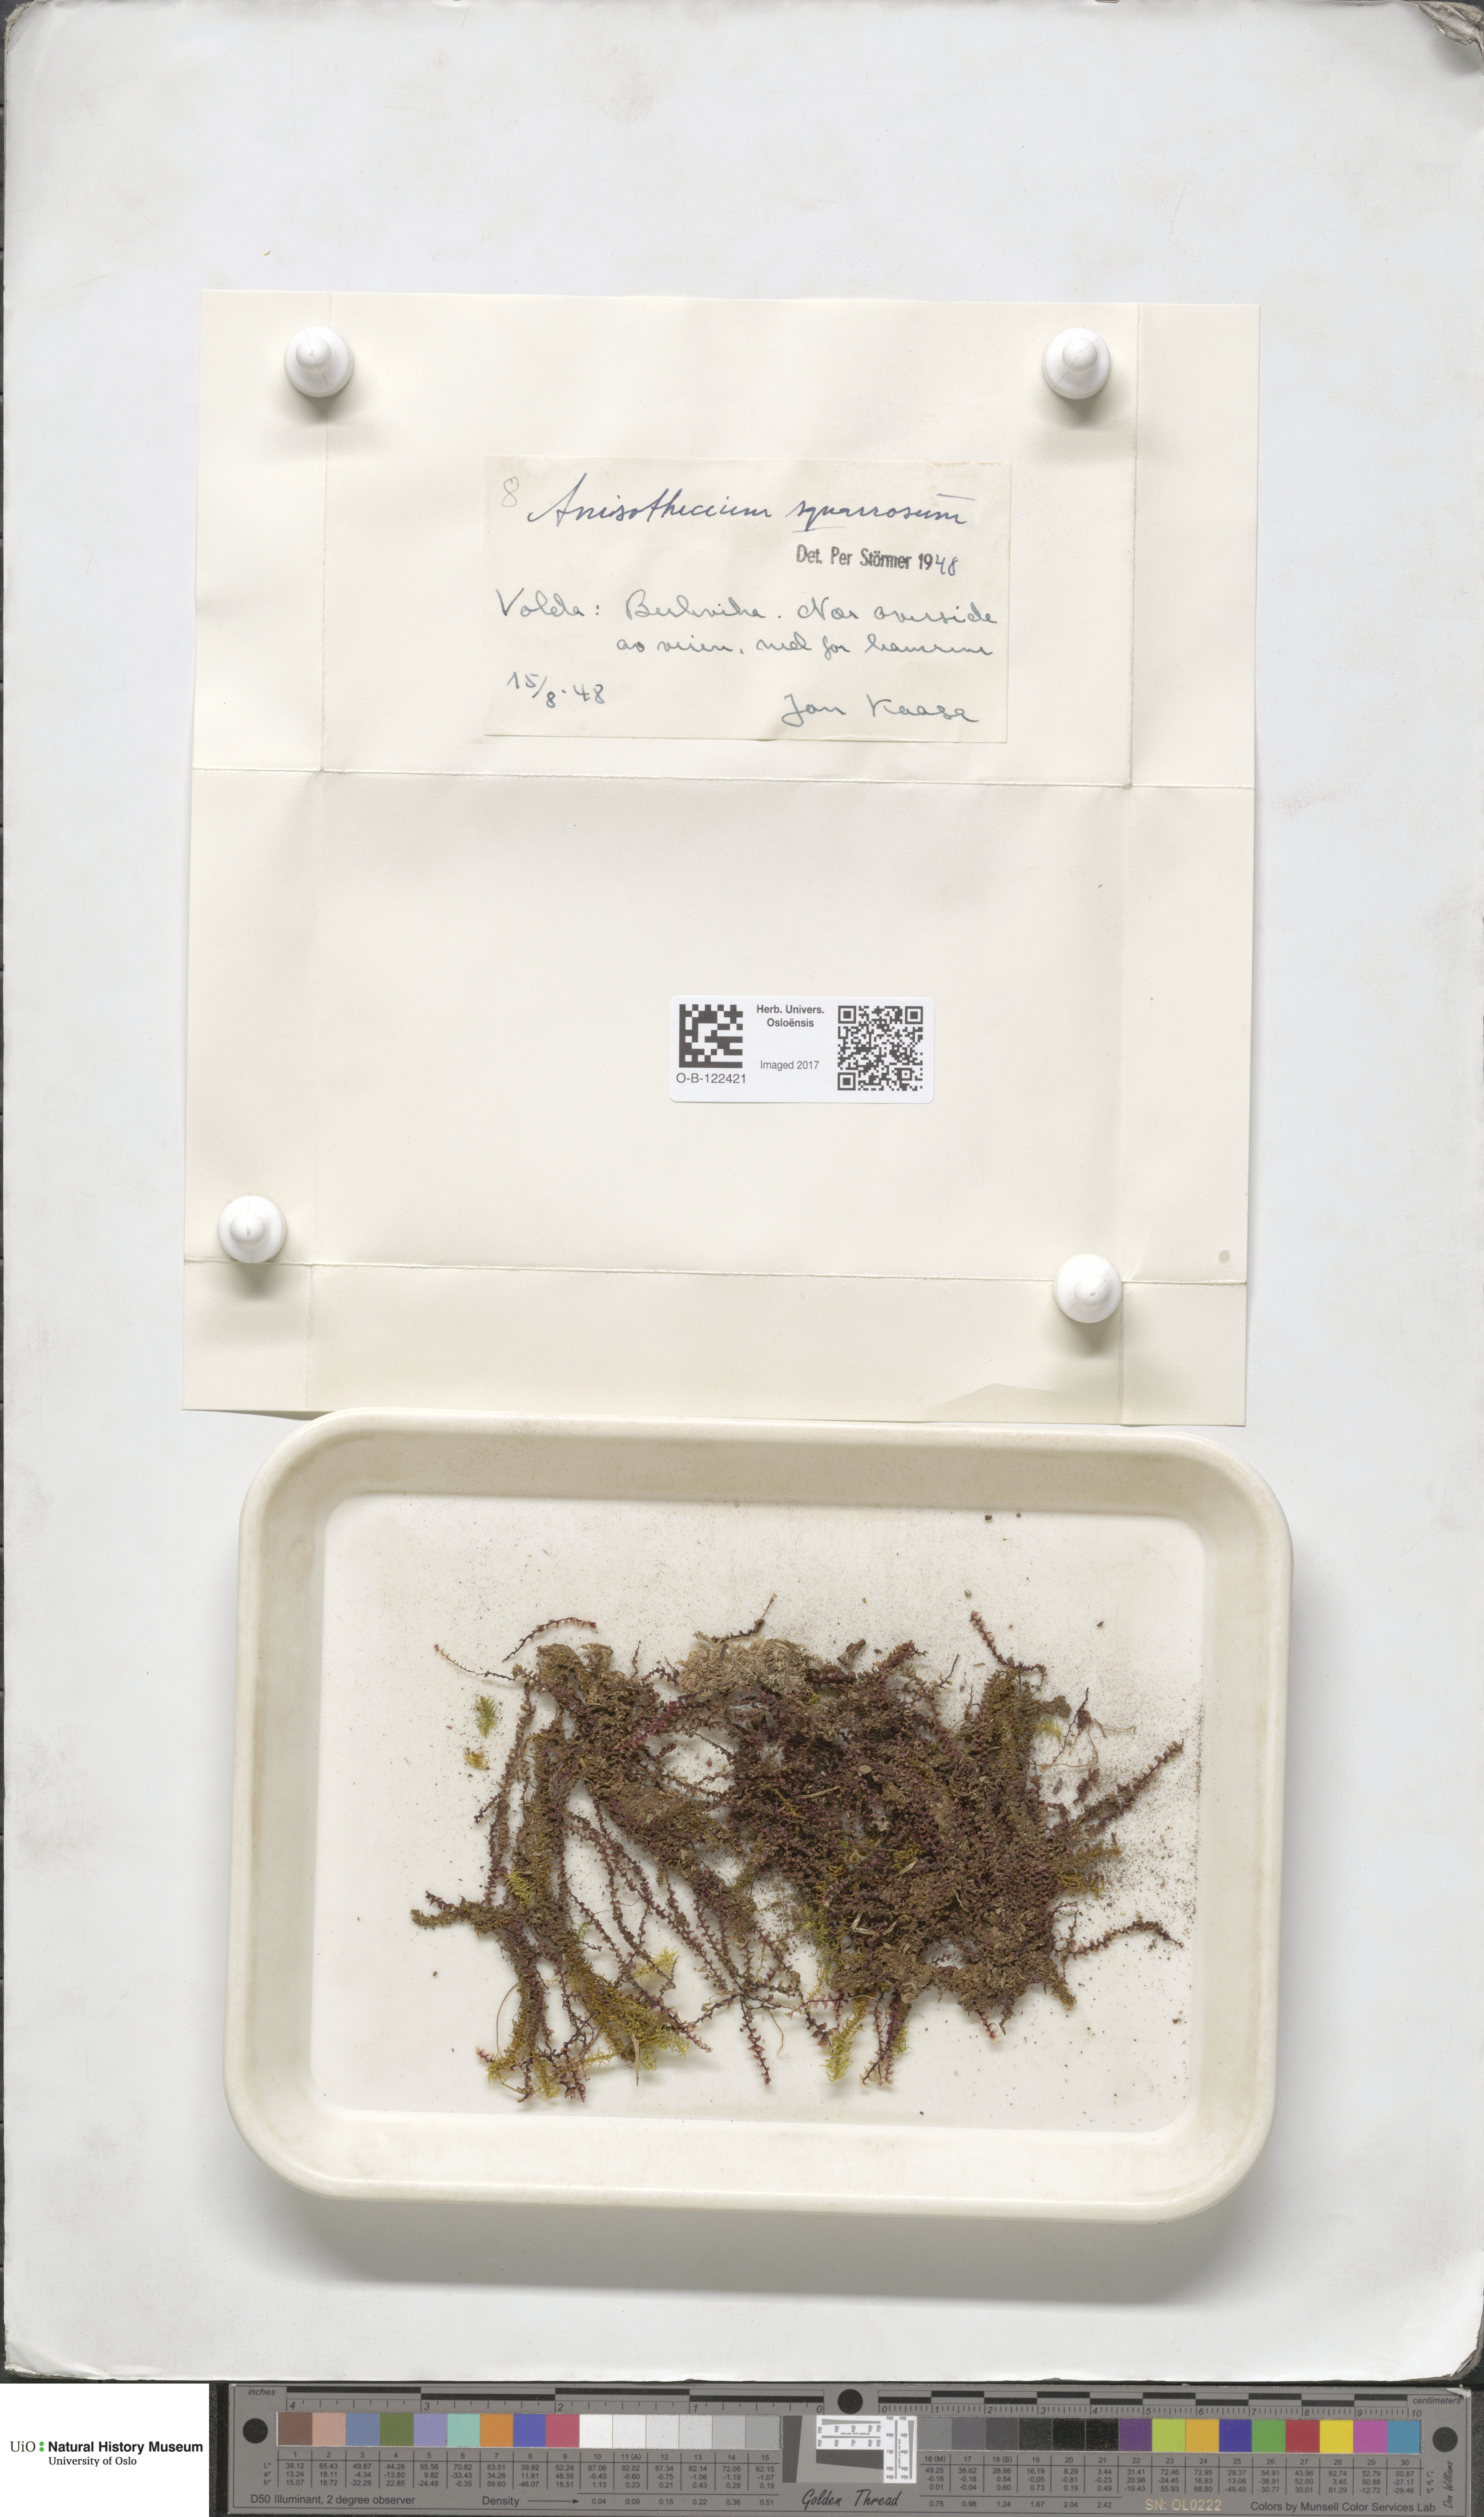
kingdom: Plantae
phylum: Bryophyta
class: Bryopsida
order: Dicranales
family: Aongstroemiaceae
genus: Diobelonella
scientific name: Diobelonella palustris
